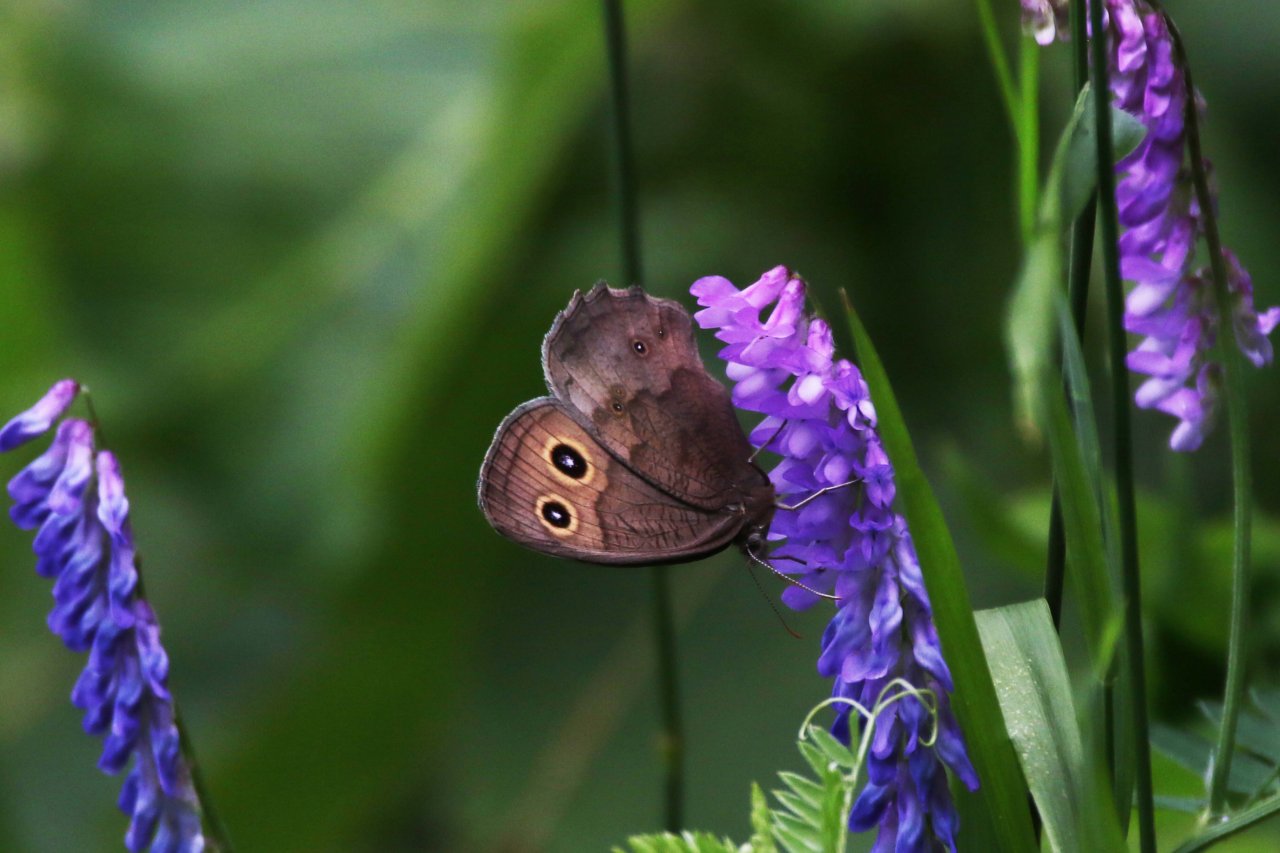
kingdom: Animalia
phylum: Arthropoda
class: Insecta
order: Lepidoptera
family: Nymphalidae
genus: Cercyonis
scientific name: Cercyonis pegala
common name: Common Wood-Nymph
